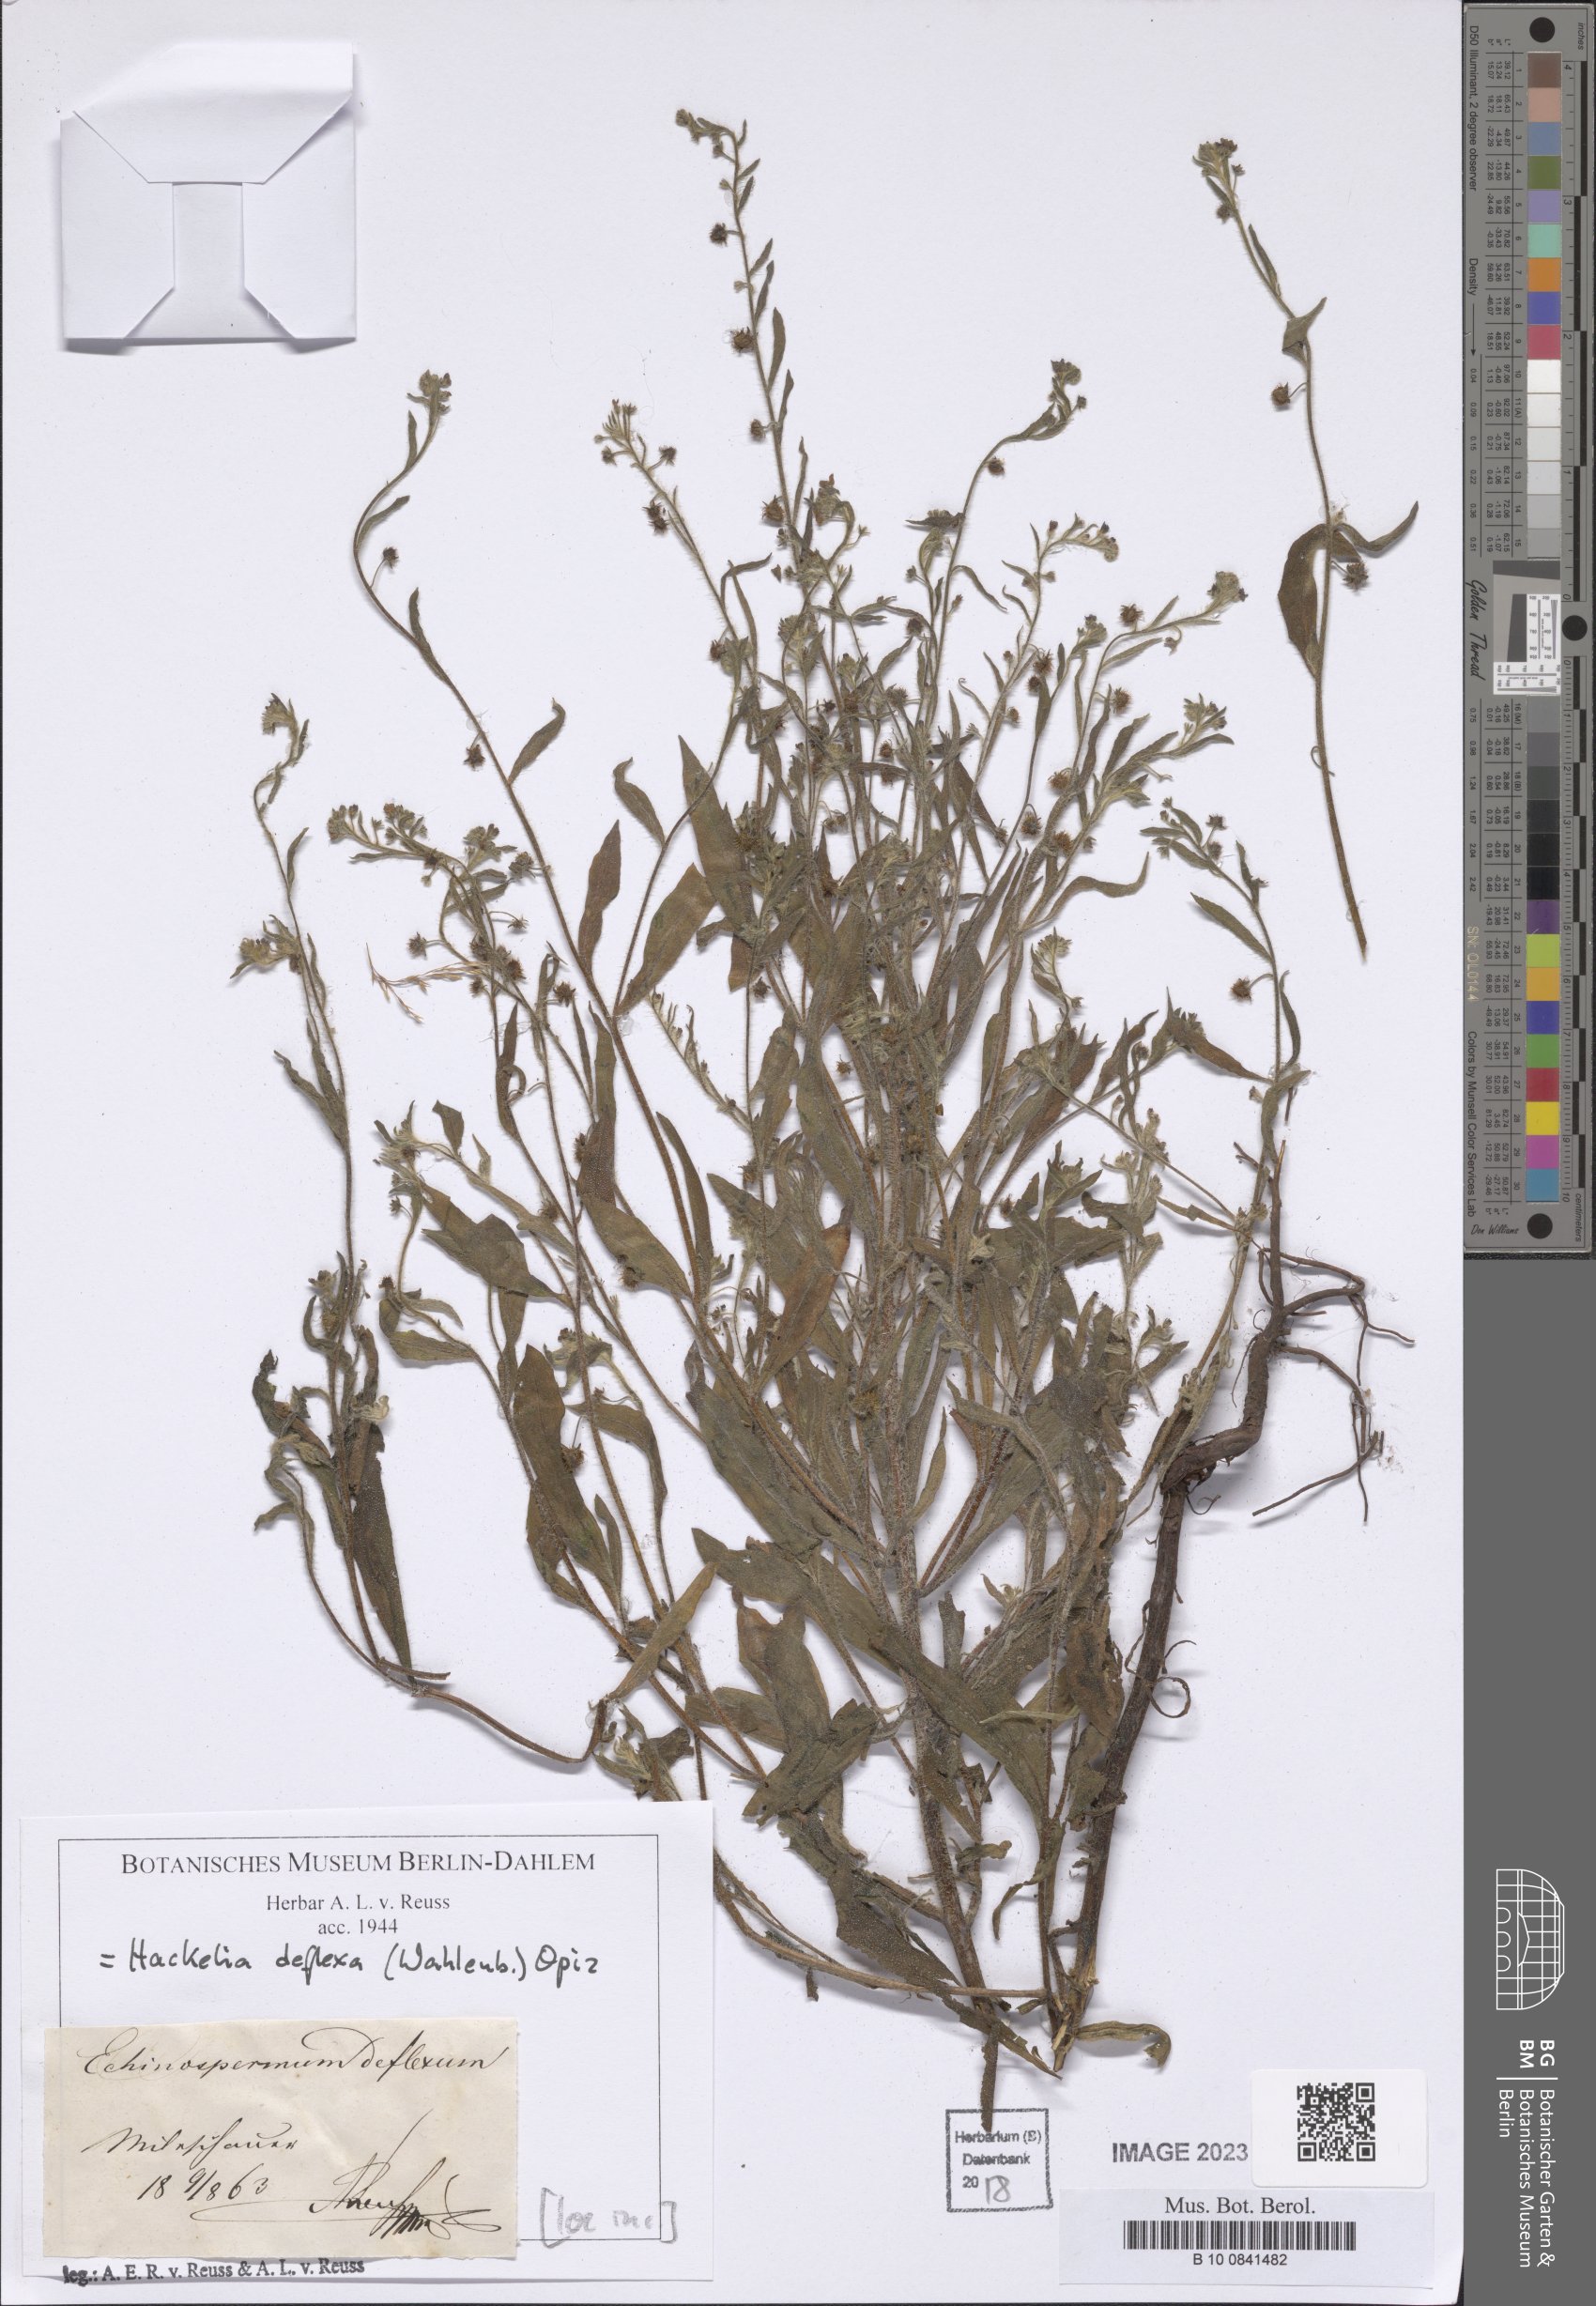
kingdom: Plantae
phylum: Tracheophyta
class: Magnoliopsida
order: Boraginales
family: Boraginaceae
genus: Hackelia
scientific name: Hackelia deflexa
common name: Nodding stickseed
